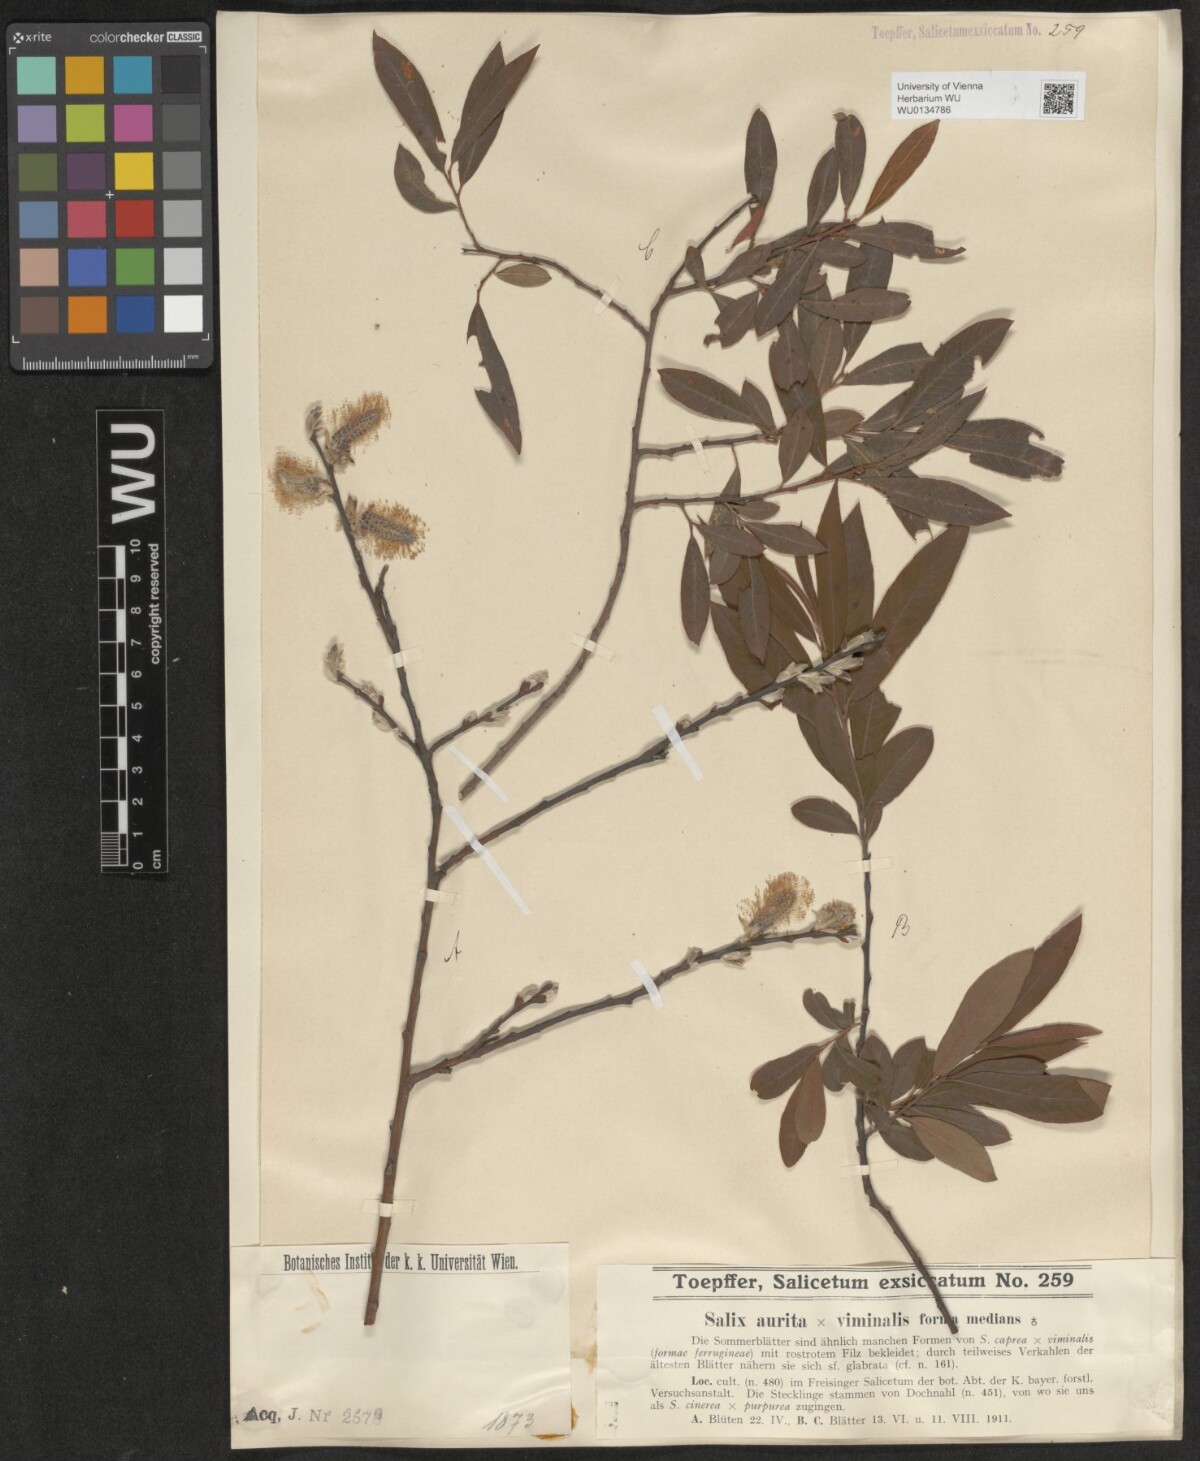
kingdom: Plantae
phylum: Tracheophyta
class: Magnoliopsida
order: Malpighiales
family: Salicaceae
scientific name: Salicaceae
